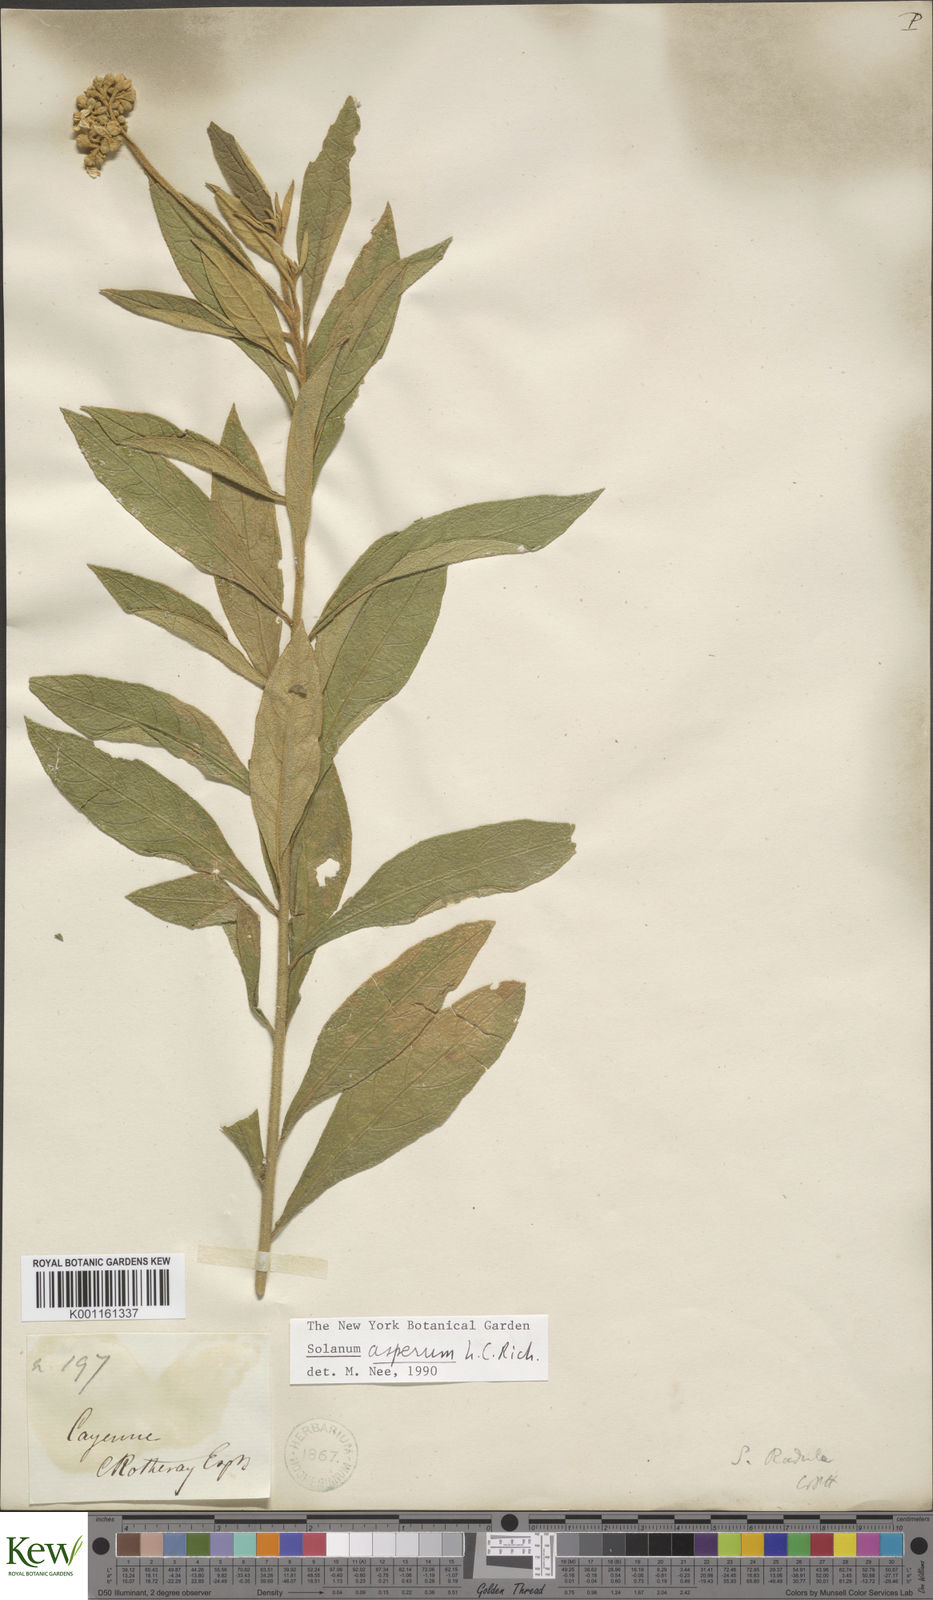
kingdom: Plantae
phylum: Tracheophyta
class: Magnoliopsida
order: Solanales
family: Solanaceae
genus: Solanum
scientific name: Solanum asperum
